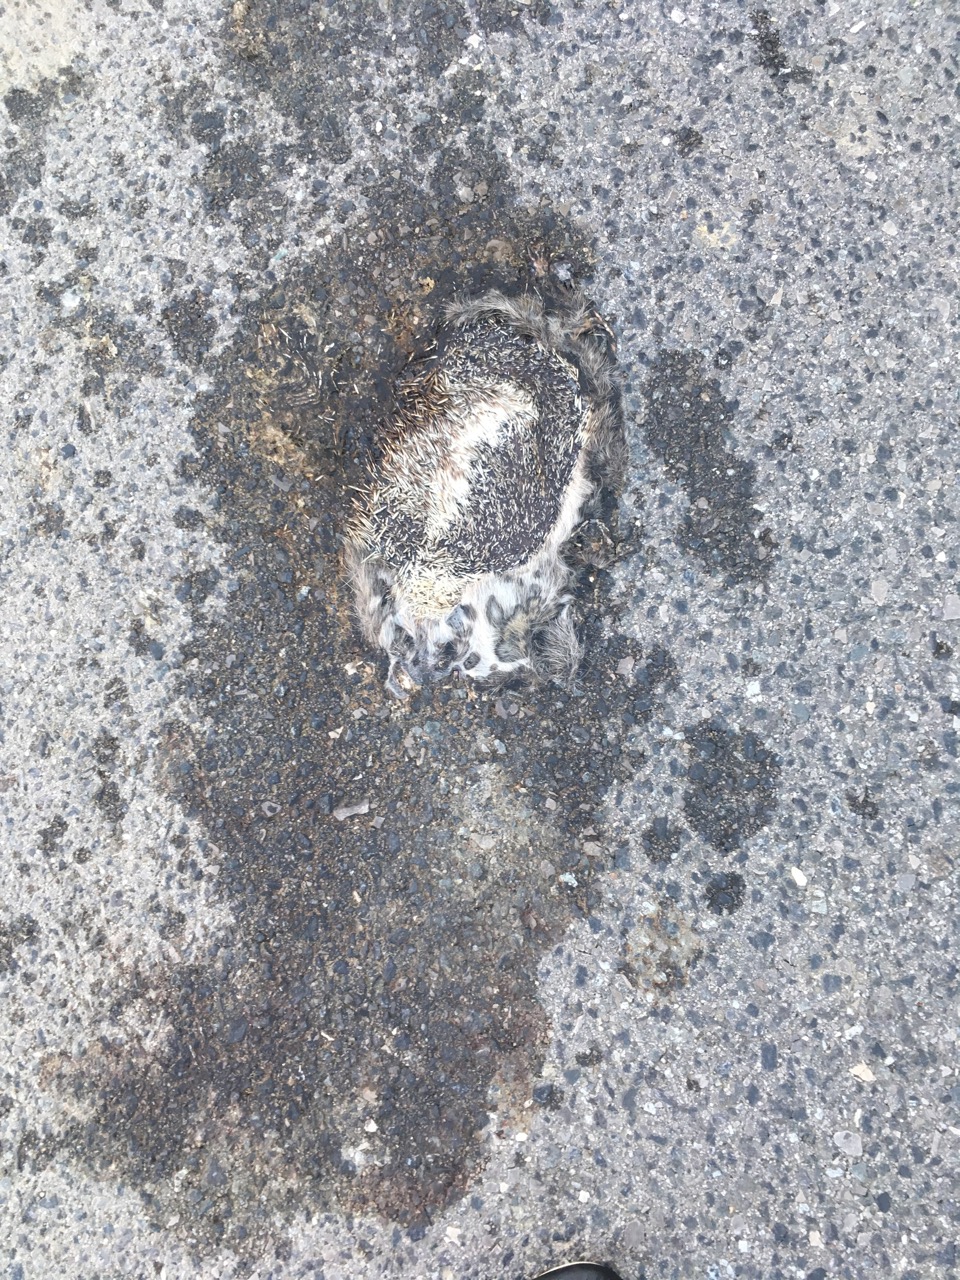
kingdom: Animalia
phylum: Chordata
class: Mammalia
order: Erinaceomorpha
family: Erinaceidae
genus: Erinaceus
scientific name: Erinaceus
